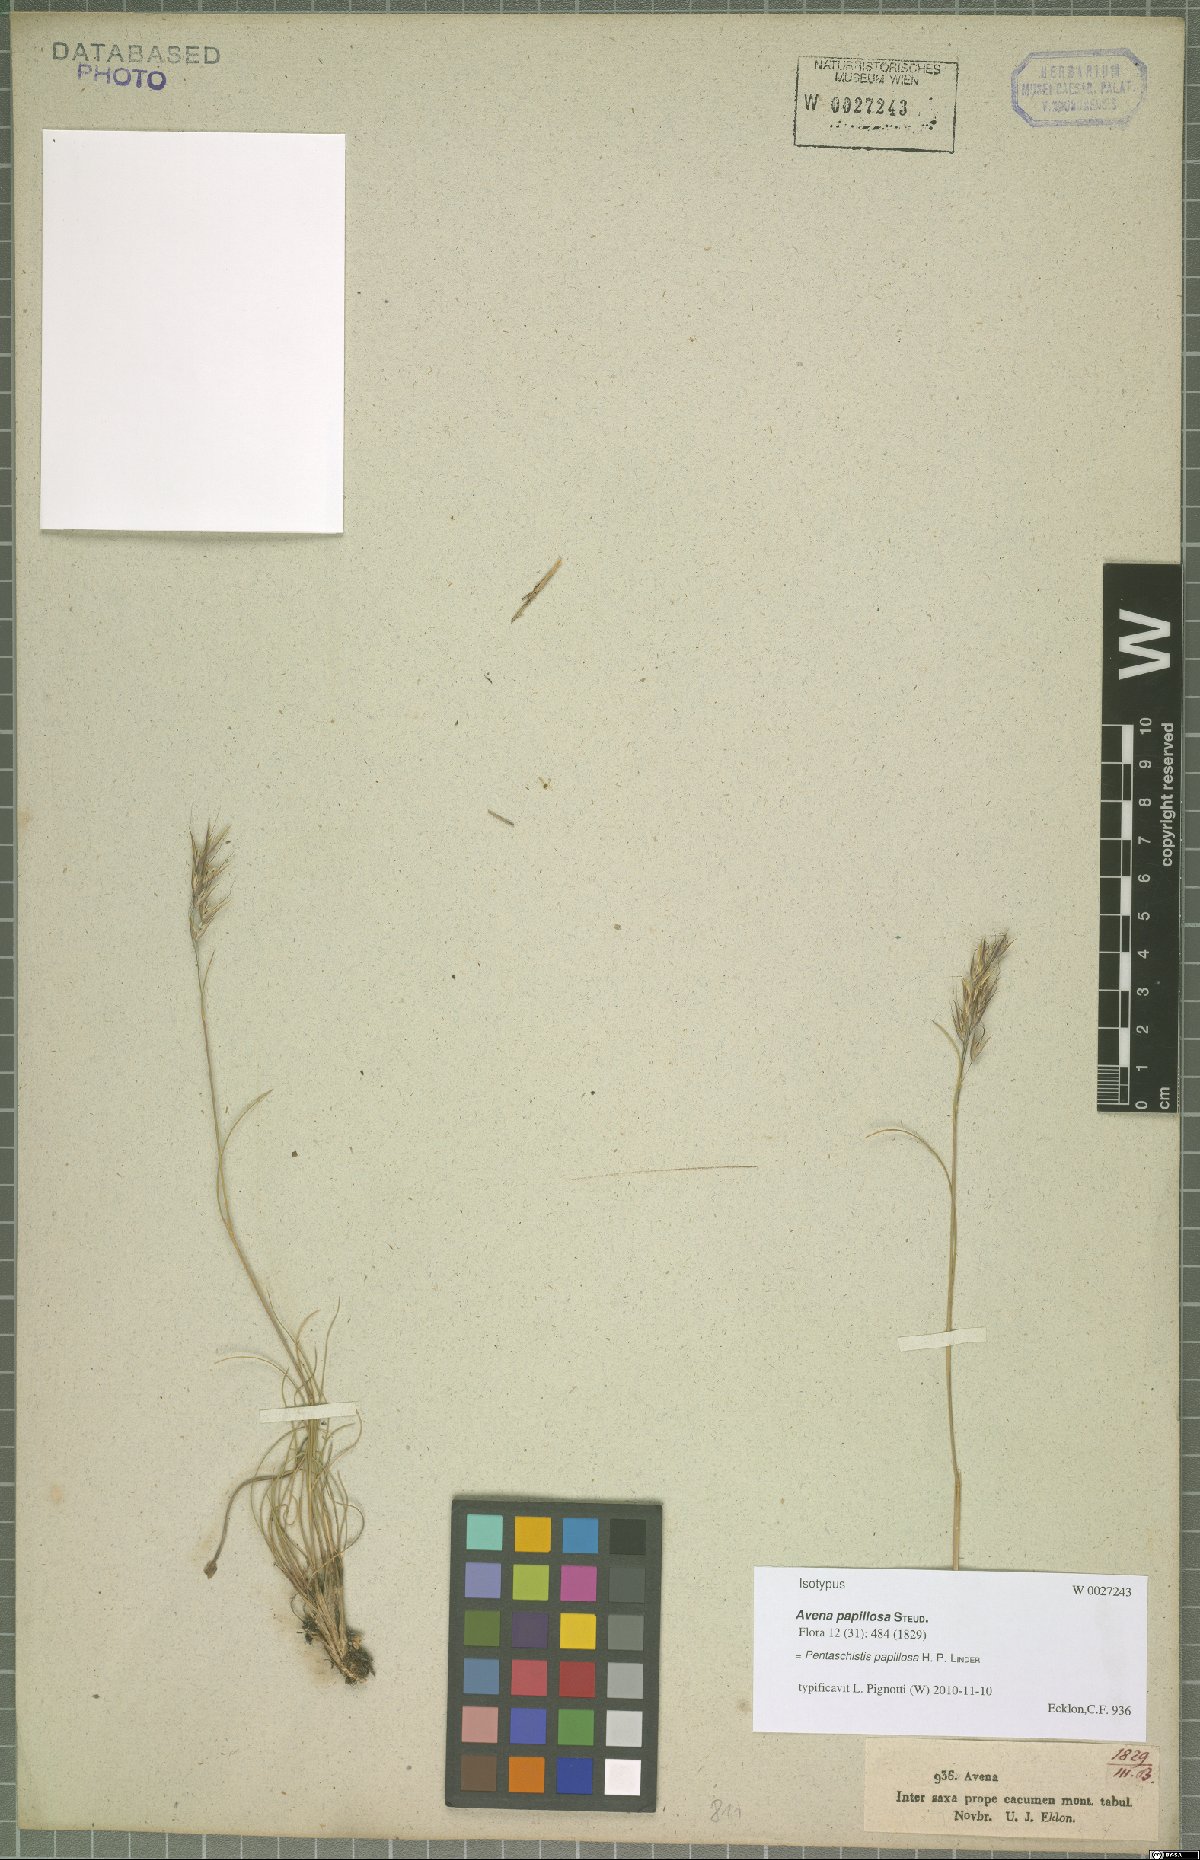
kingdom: Plantae
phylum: Tracheophyta
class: Liliopsida
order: Poales
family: Poaceae
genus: Pentameris
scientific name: Pentameris scabra
